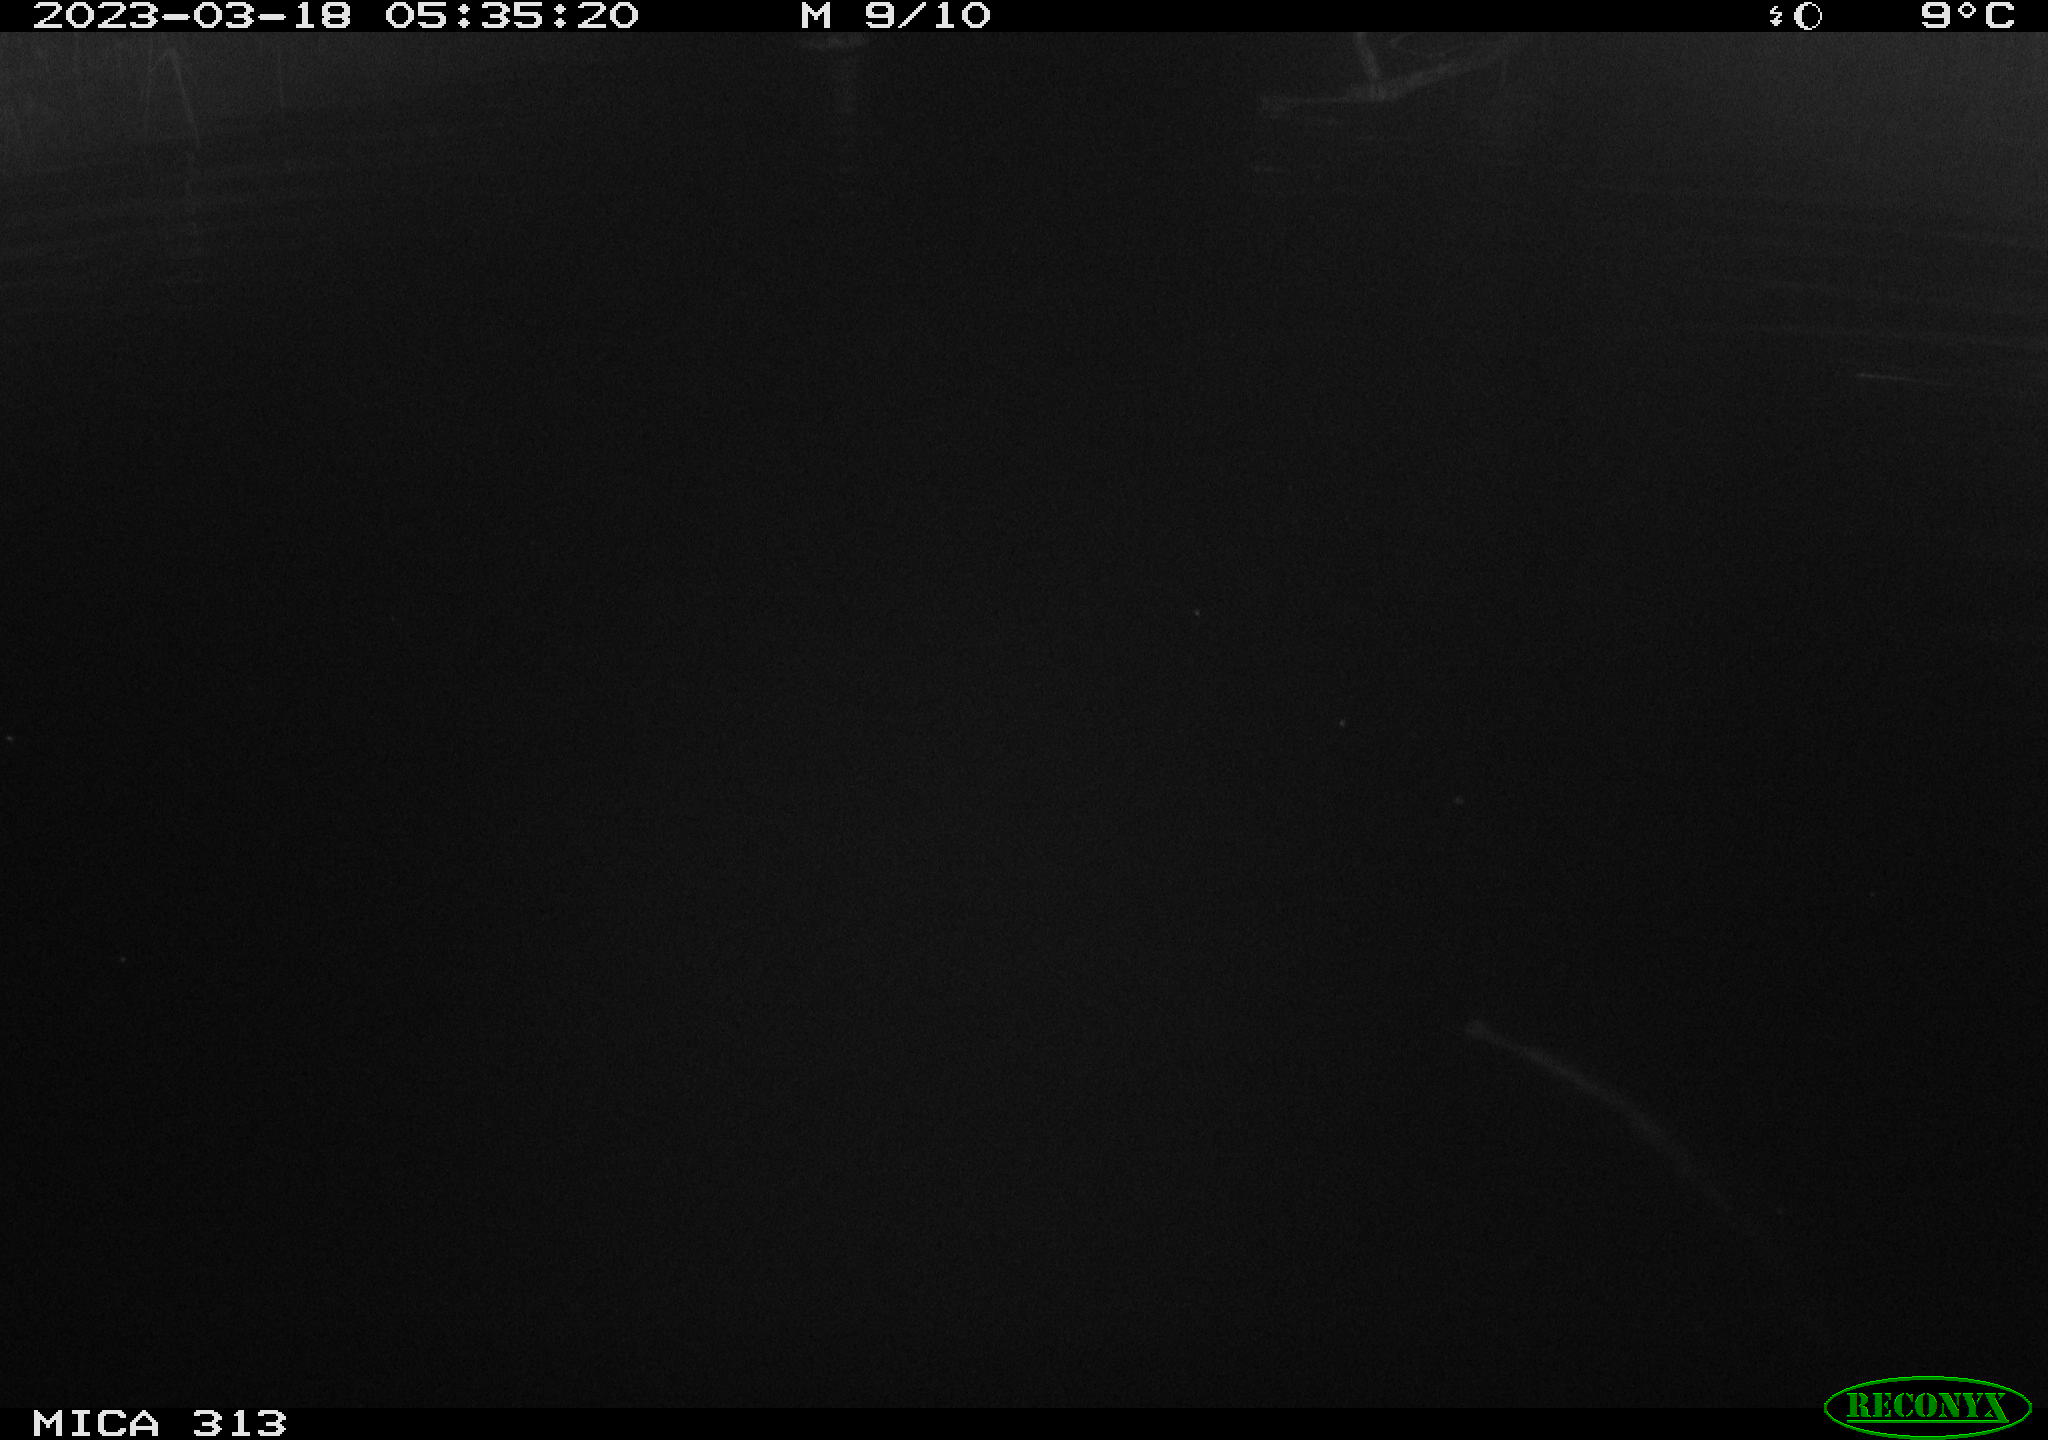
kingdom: Animalia
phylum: Chordata
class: Aves
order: Anseriformes
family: Anatidae
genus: Anas
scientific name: Anas
